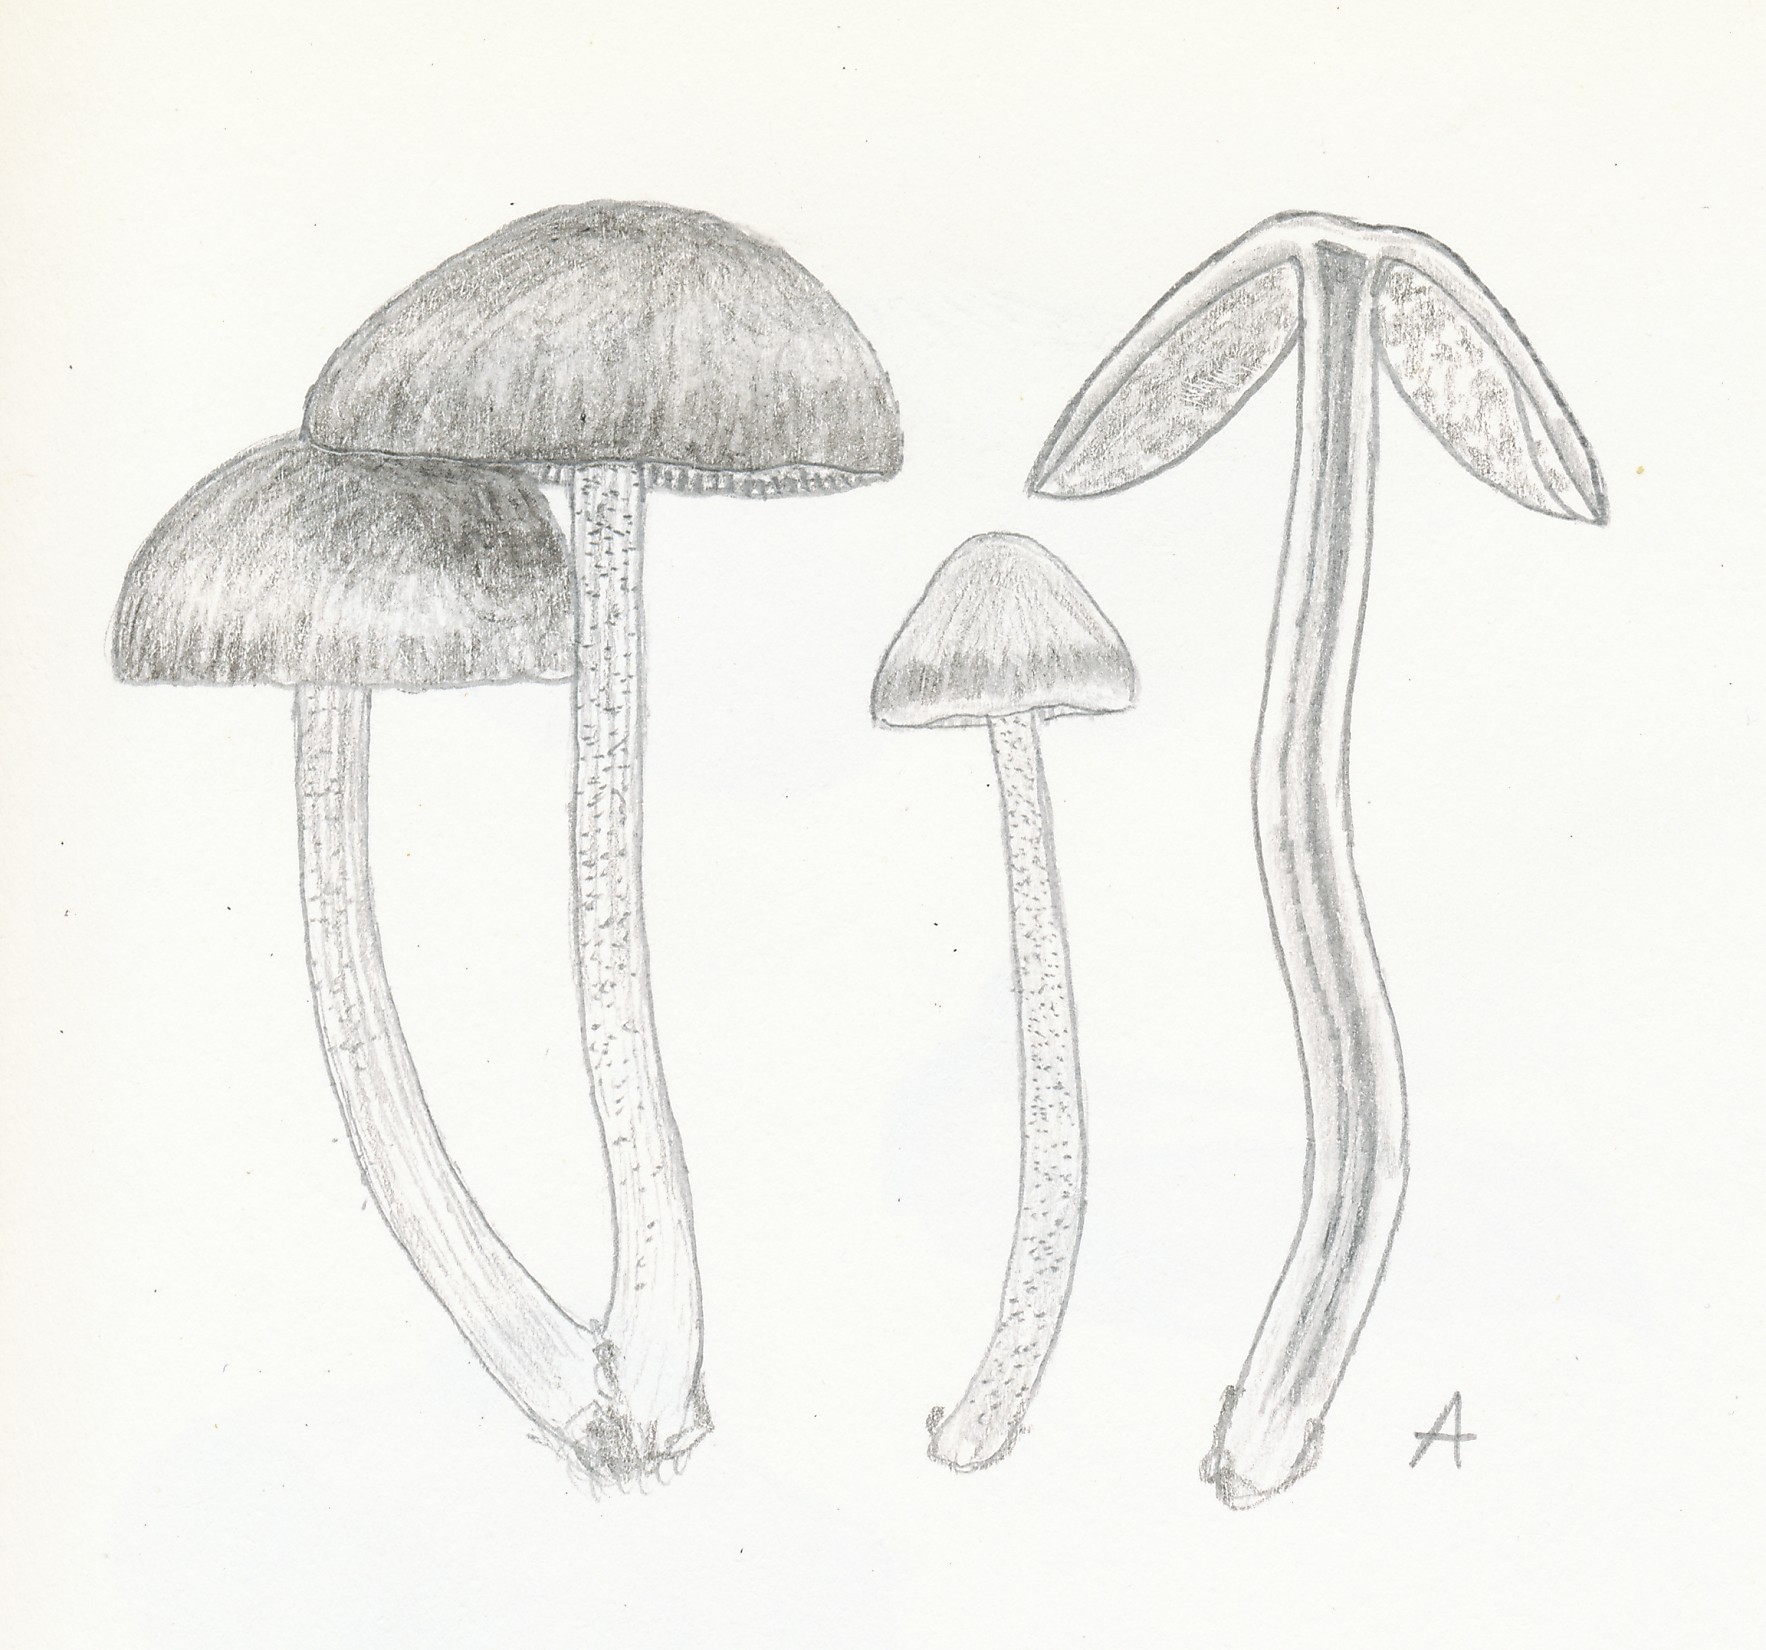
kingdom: Fungi
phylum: Basidiomycota
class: Agaricomycetes
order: Agaricales
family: Bolbitiaceae
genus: Panaeolus
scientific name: Panaeolus olivaceus
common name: lysstokket glanshat
